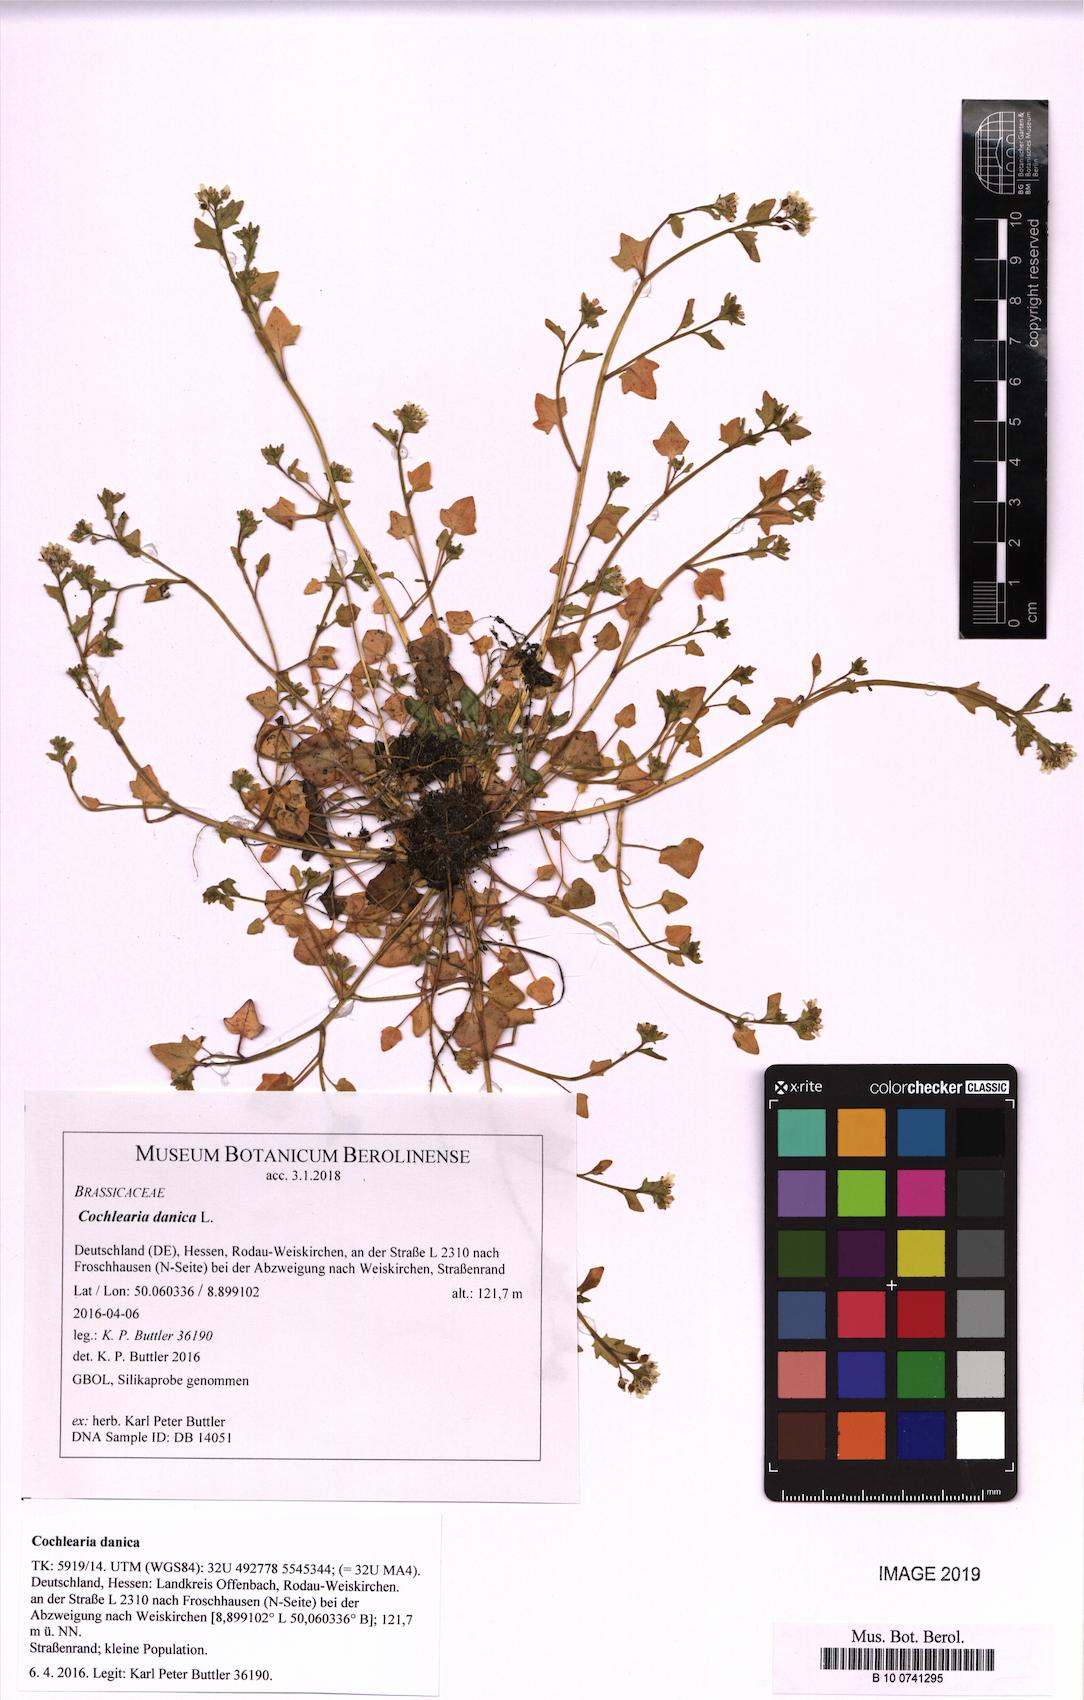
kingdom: Plantae
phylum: Tracheophyta
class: Magnoliopsida
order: Brassicales
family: Brassicaceae
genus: Cochlearia
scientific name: Cochlearia danica
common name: Early scurvygrass
